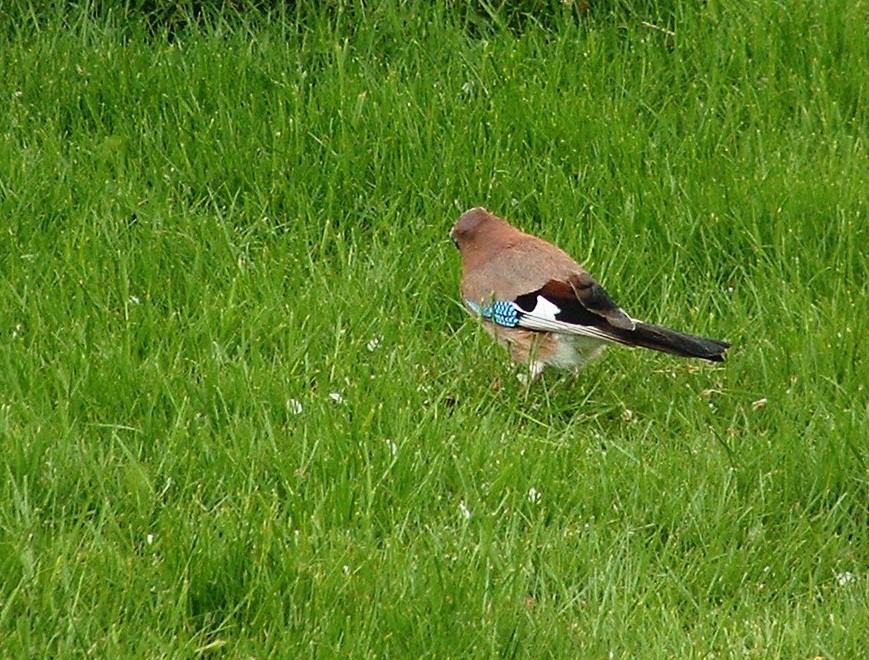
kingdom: Animalia
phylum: Chordata
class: Aves
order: Passeriformes
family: Corvidae
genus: Garrulus
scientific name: Garrulus glandarius
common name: Skovskade
